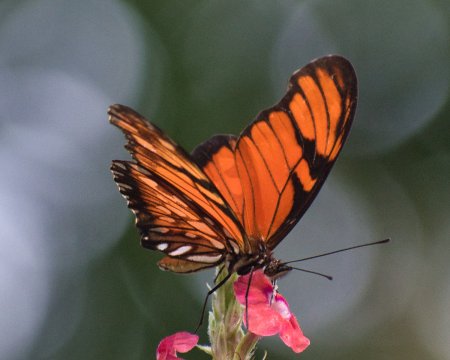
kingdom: Animalia
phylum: Arthropoda
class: Insecta
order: Lepidoptera
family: Nymphalidae
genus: Dione
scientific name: Dione juno
